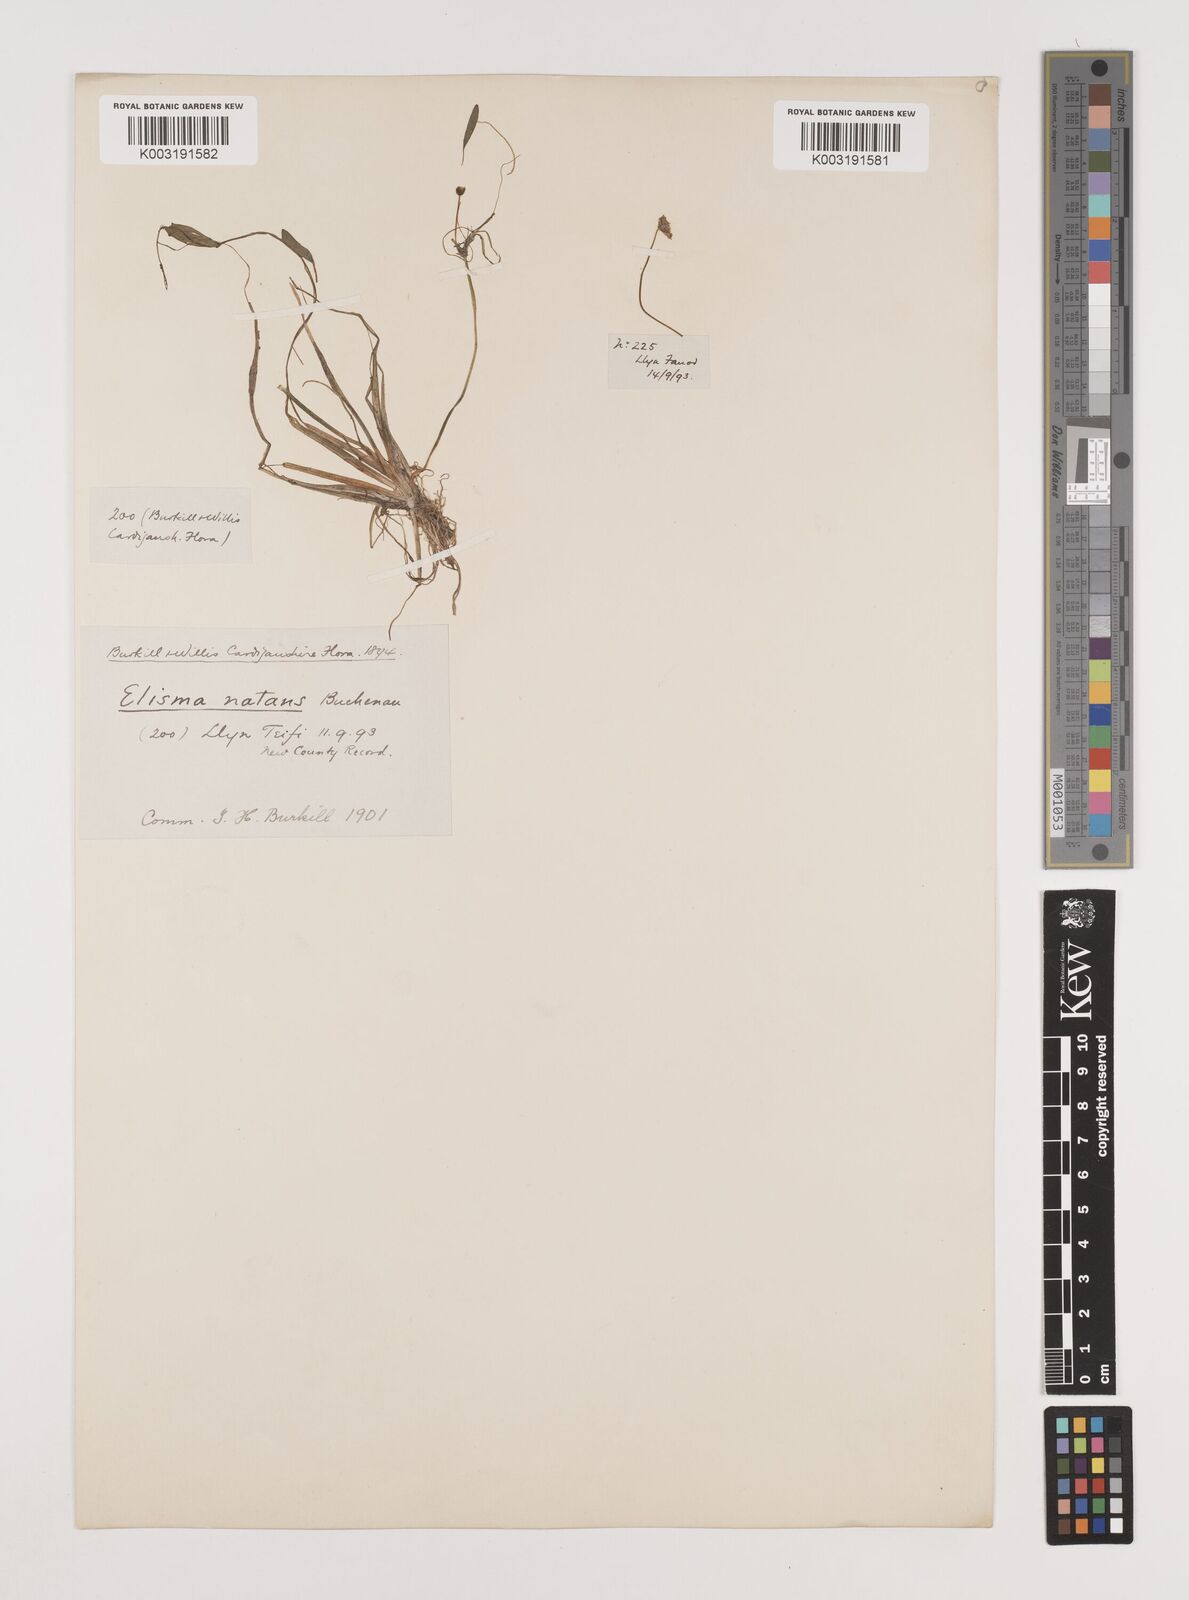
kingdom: Plantae
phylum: Tracheophyta
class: Liliopsida
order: Alismatales
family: Alismataceae
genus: Luronium
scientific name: Luronium natans
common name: Floating water-plantain
